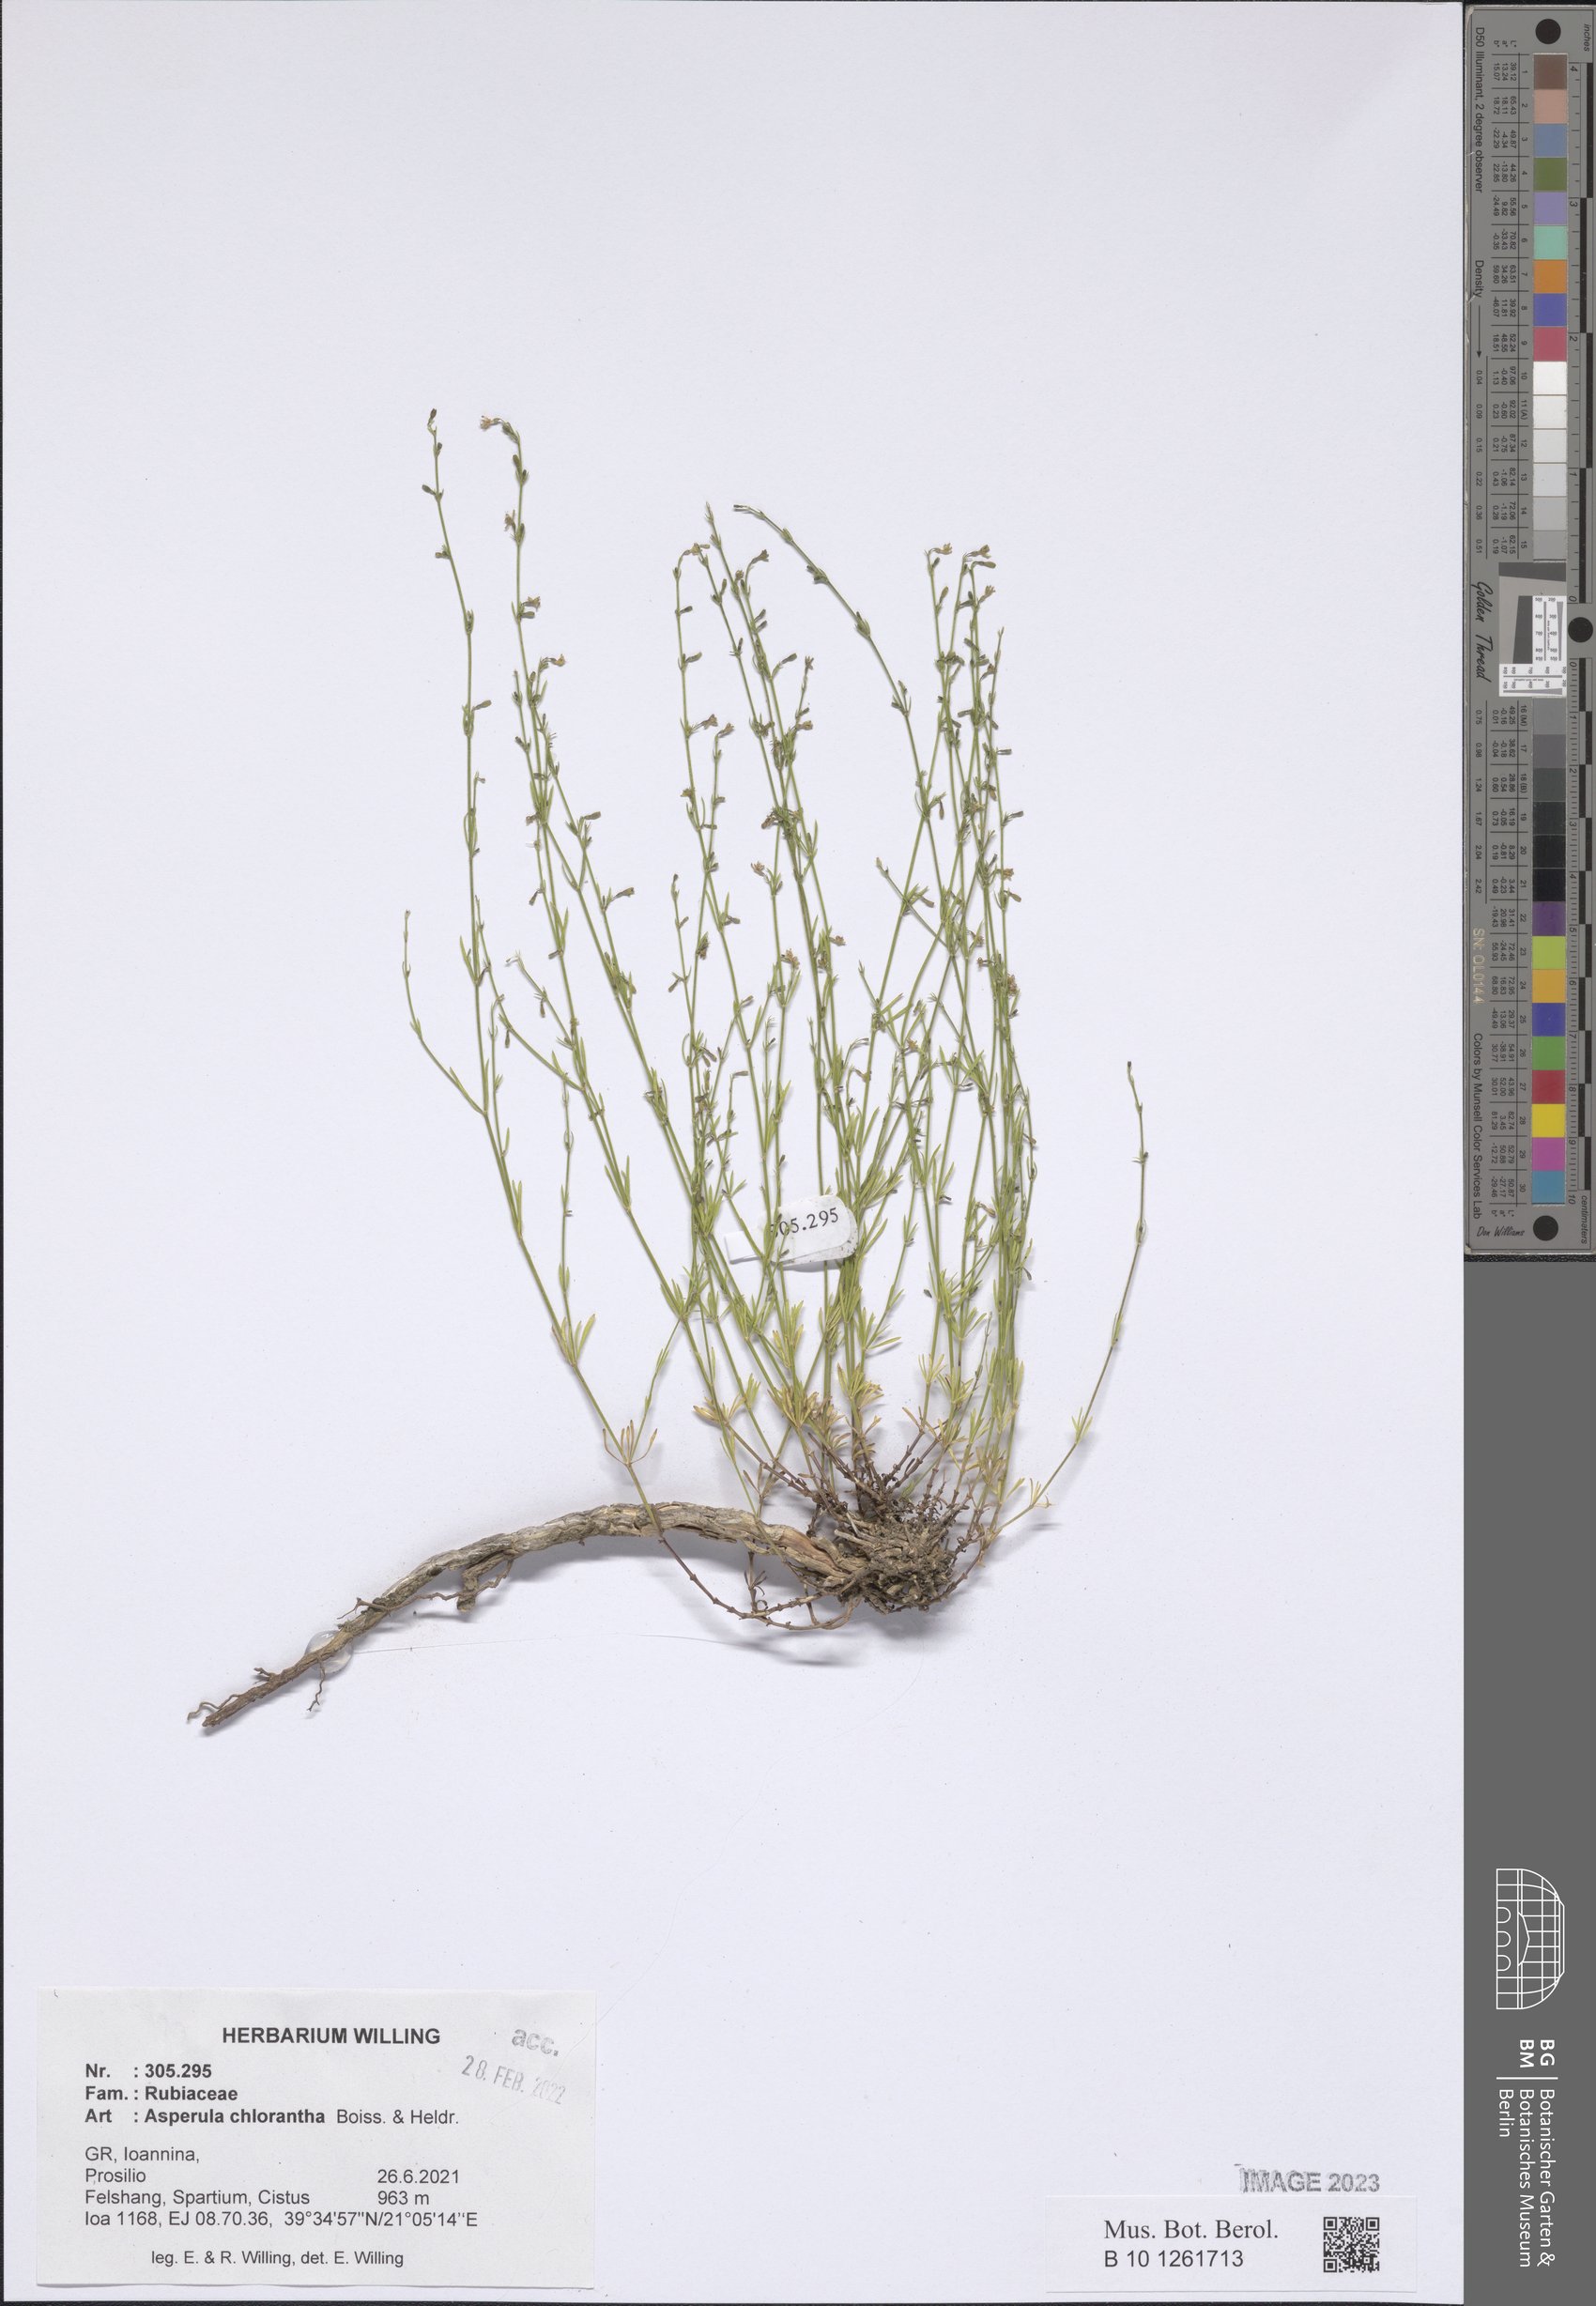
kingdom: Plantae
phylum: Tracheophyta
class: Magnoliopsida
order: Gentianales
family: Rubiaceae
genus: Thliphthisa
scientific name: Thliphthisa chlorantha
